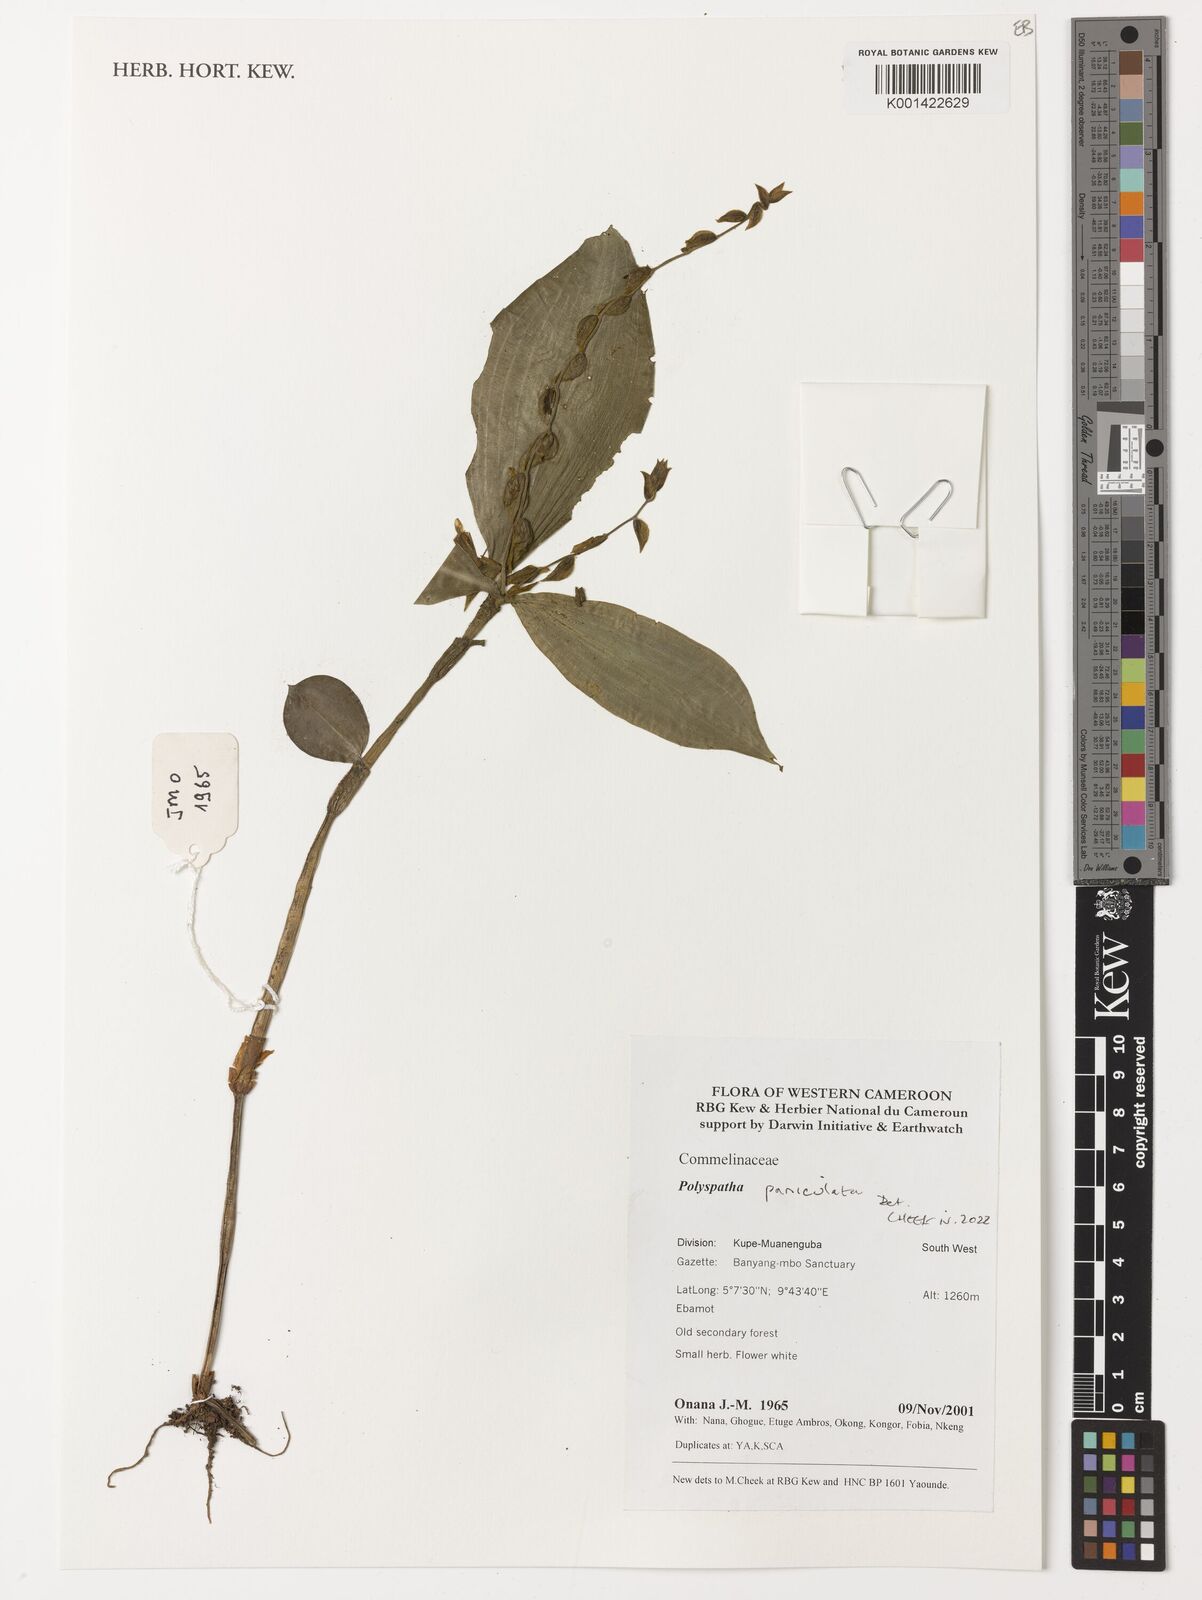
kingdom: Plantae
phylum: Tracheophyta
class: Liliopsida
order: Commelinales
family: Commelinaceae
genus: Polyspatha
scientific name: Polyspatha paniculata
